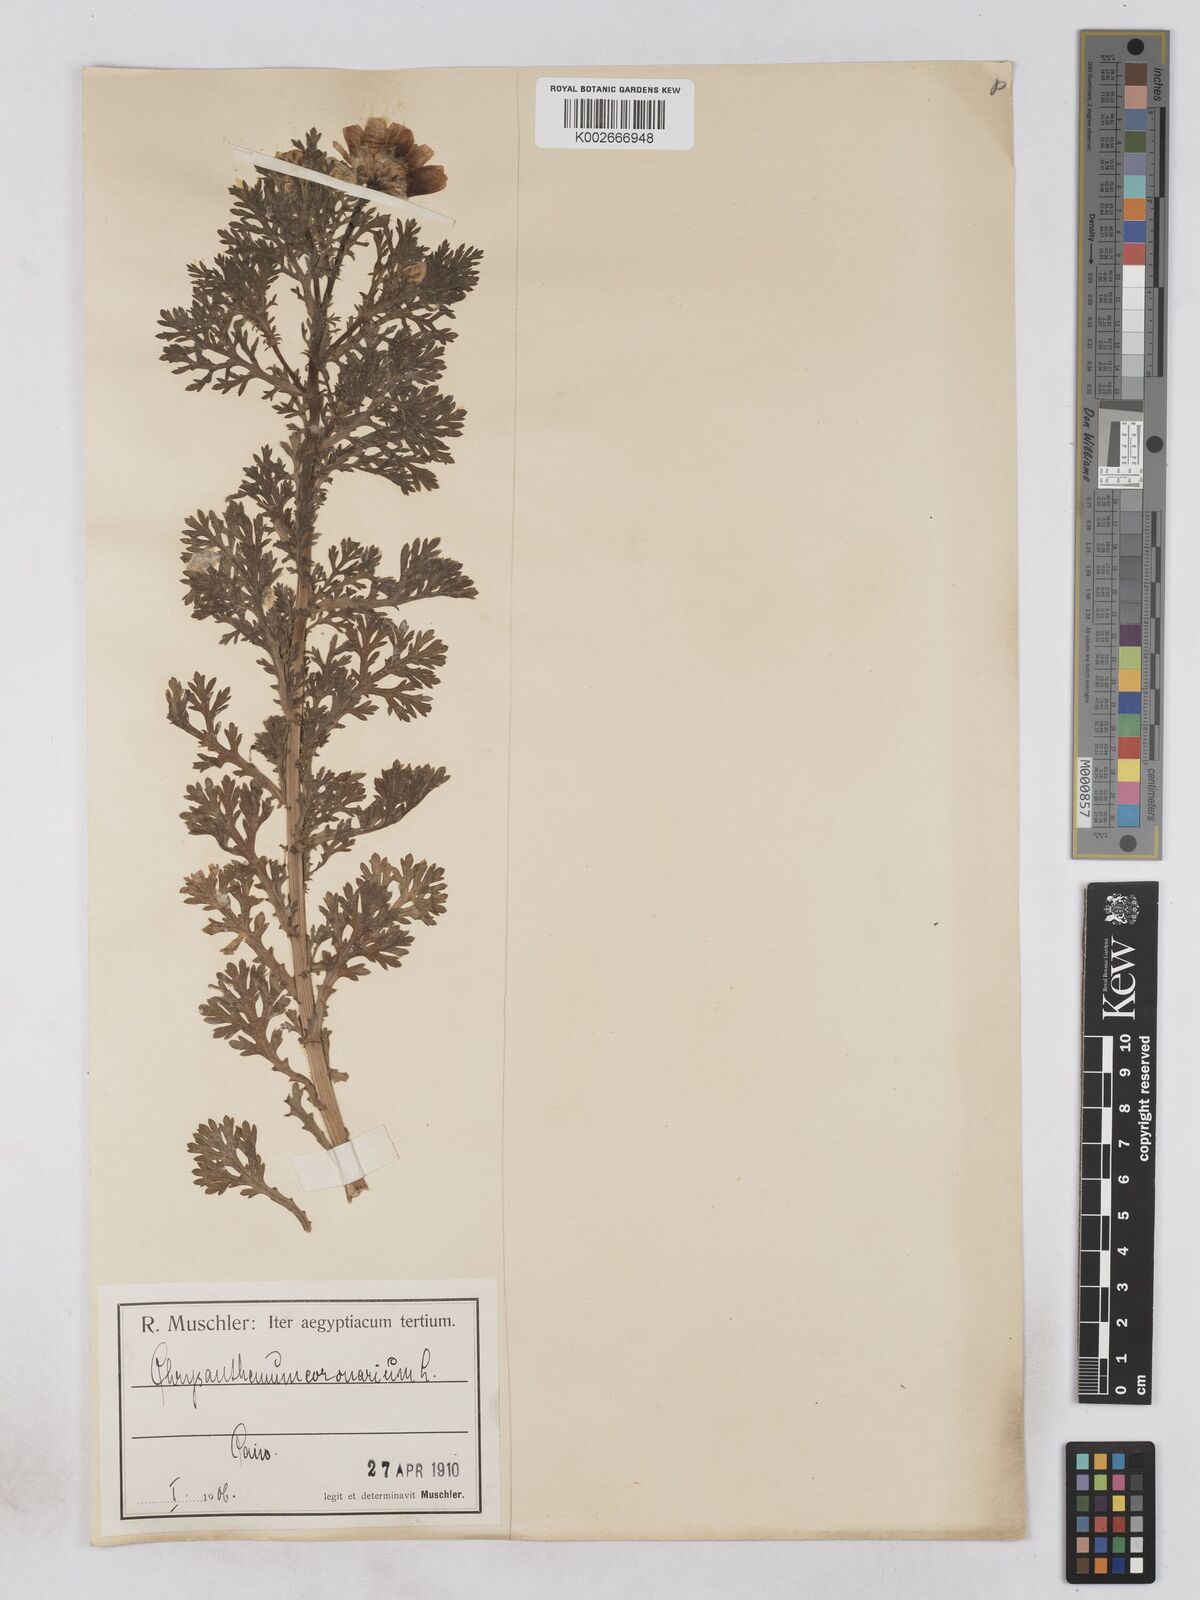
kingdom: Plantae
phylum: Tracheophyta
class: Magnoliopsida
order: Asterales
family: Asteraceae
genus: Glebionis
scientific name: Glebionis coronaria
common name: Crowndaisy
